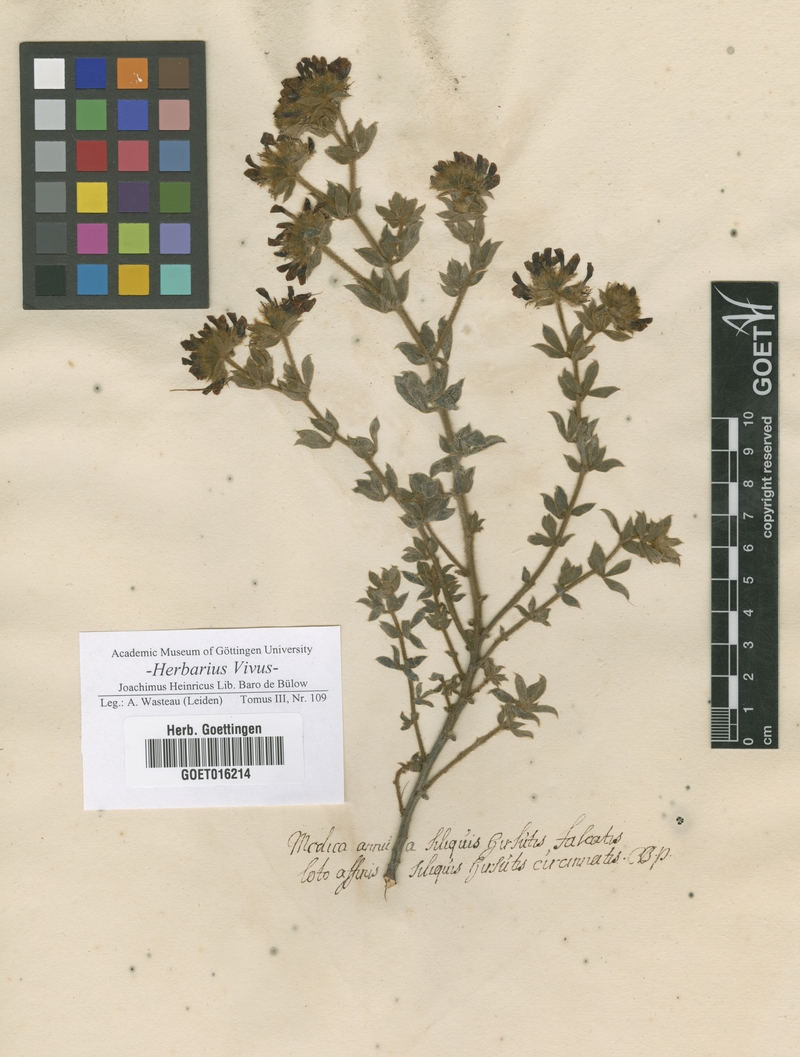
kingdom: Plantae
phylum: Tracheophyta
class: Magnoliopsida
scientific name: Magnoliopsida
